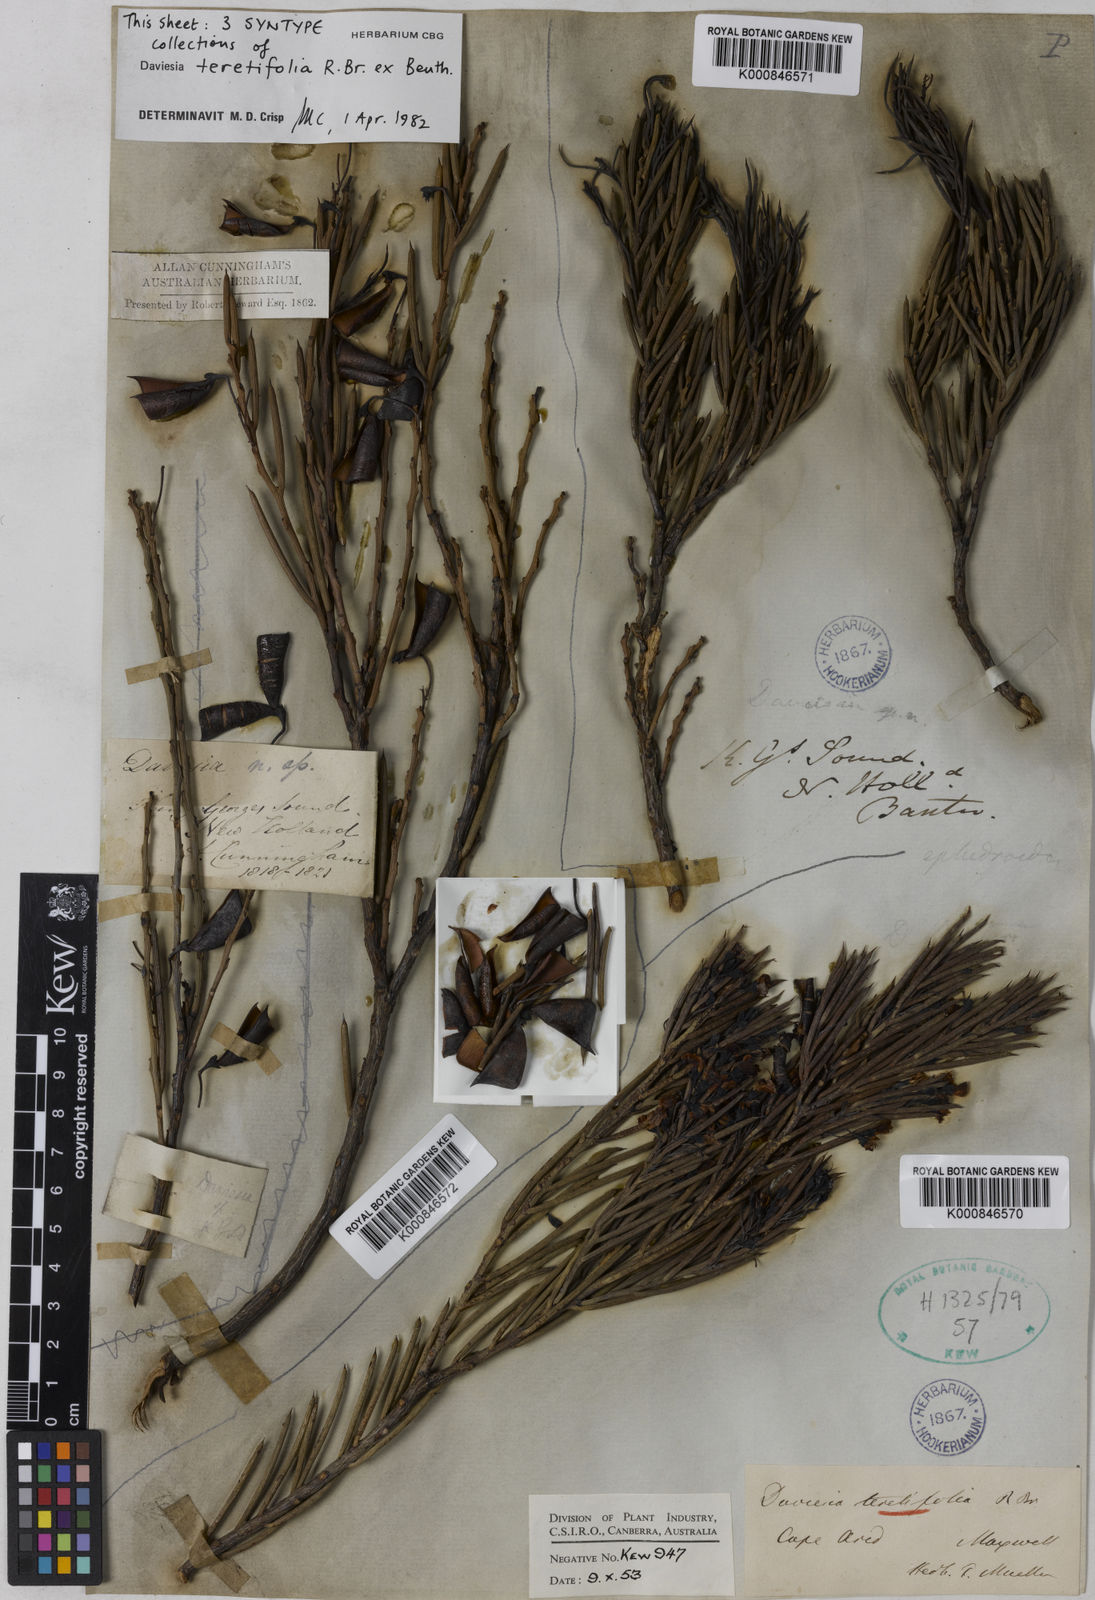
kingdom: Plantae
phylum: Tracheophyta
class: Magnoliopsida
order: Fabales
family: Fabaceae
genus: Daviesia
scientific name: Daviesia teretifolia
